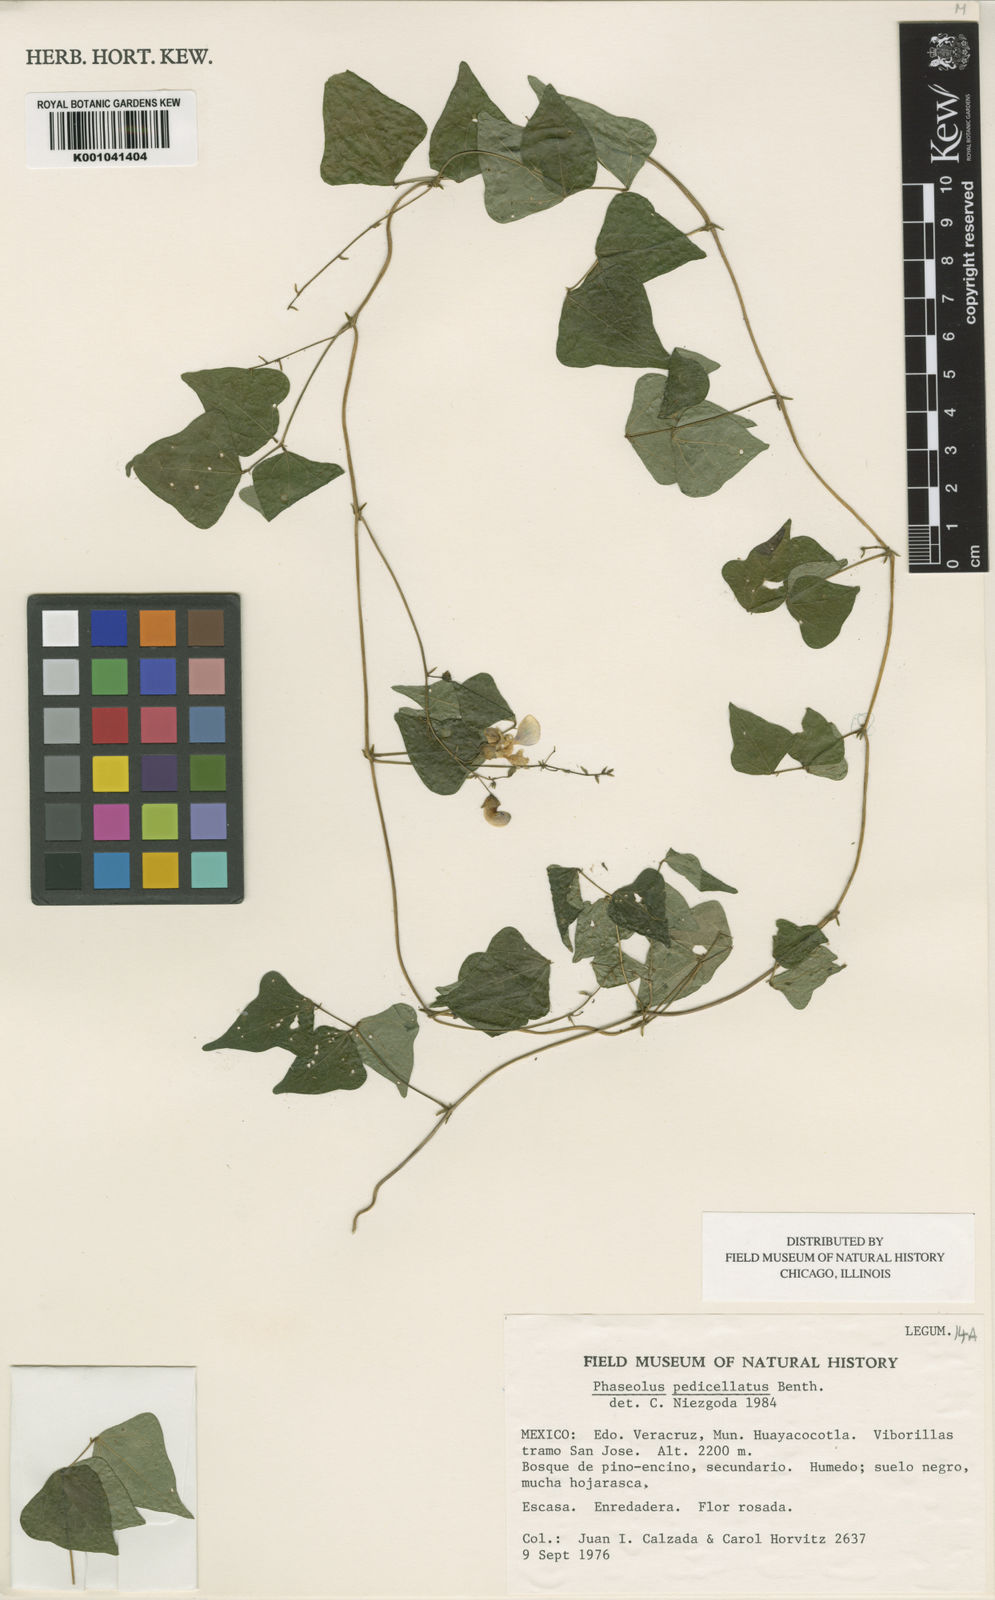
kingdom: Plantae
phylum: Tracheophyta
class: Magnoliopsida
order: Fabales
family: Fabaceae
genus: Phaseolus
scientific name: Phaseolus pedicellatus
